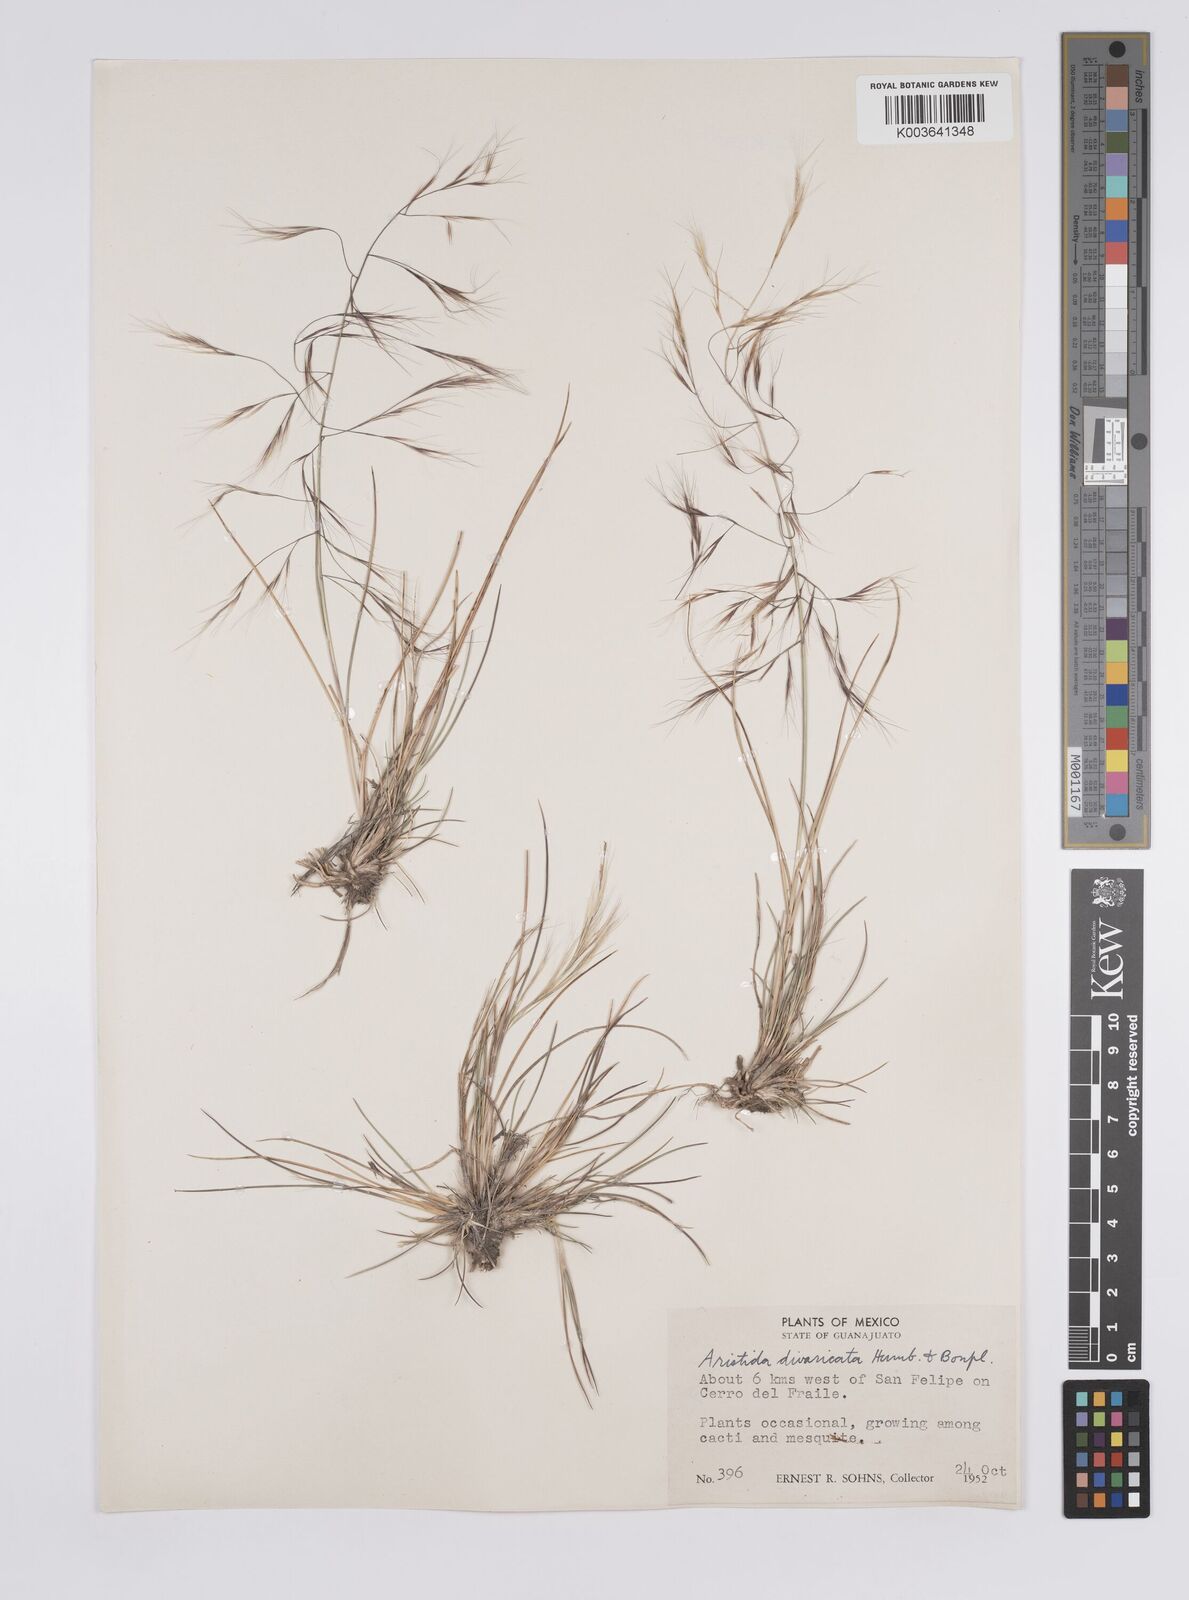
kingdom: Plantae
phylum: Tracheophyta
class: Liliopsida
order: Poales
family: Poaceae
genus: Aristida
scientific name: Aristida divaricata
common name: Poverty grass
